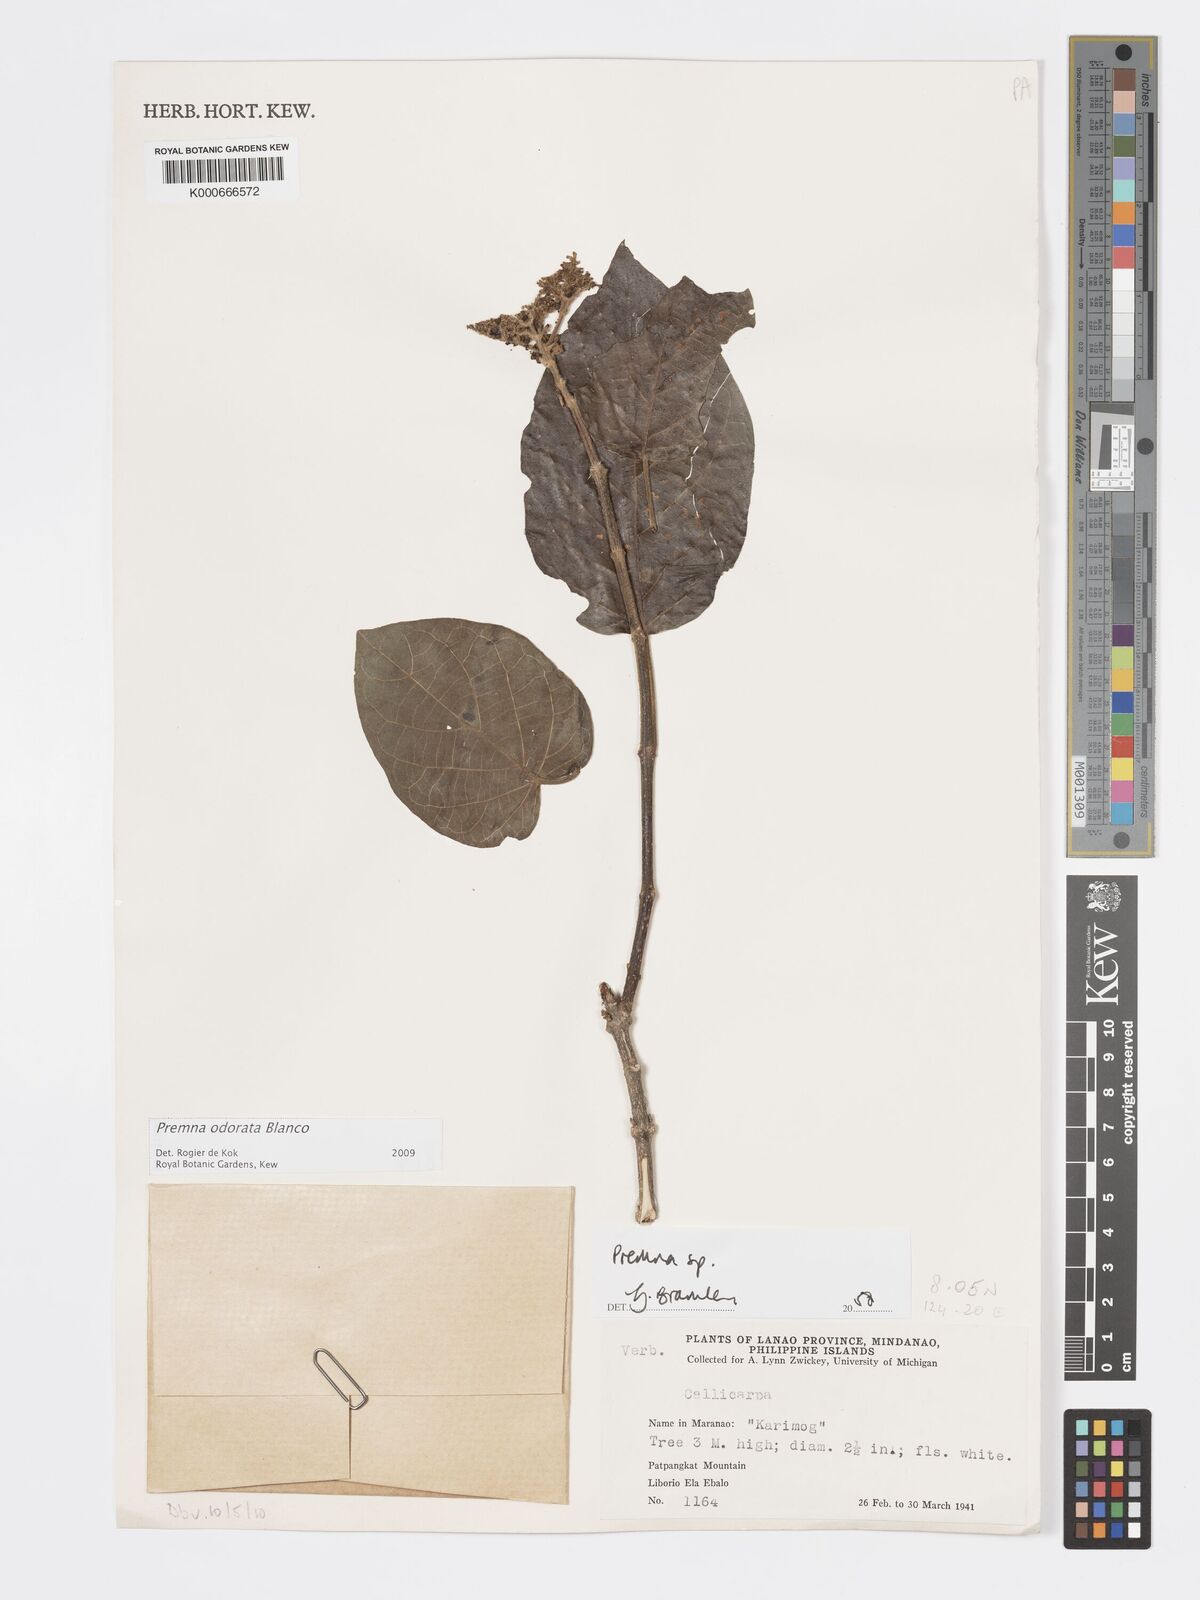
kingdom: Plantae
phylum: Tracheophyta
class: Magnoliopsida
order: Lamiales
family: Lamiaceae
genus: Premna
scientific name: Premna odorata
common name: Fragrant premna
